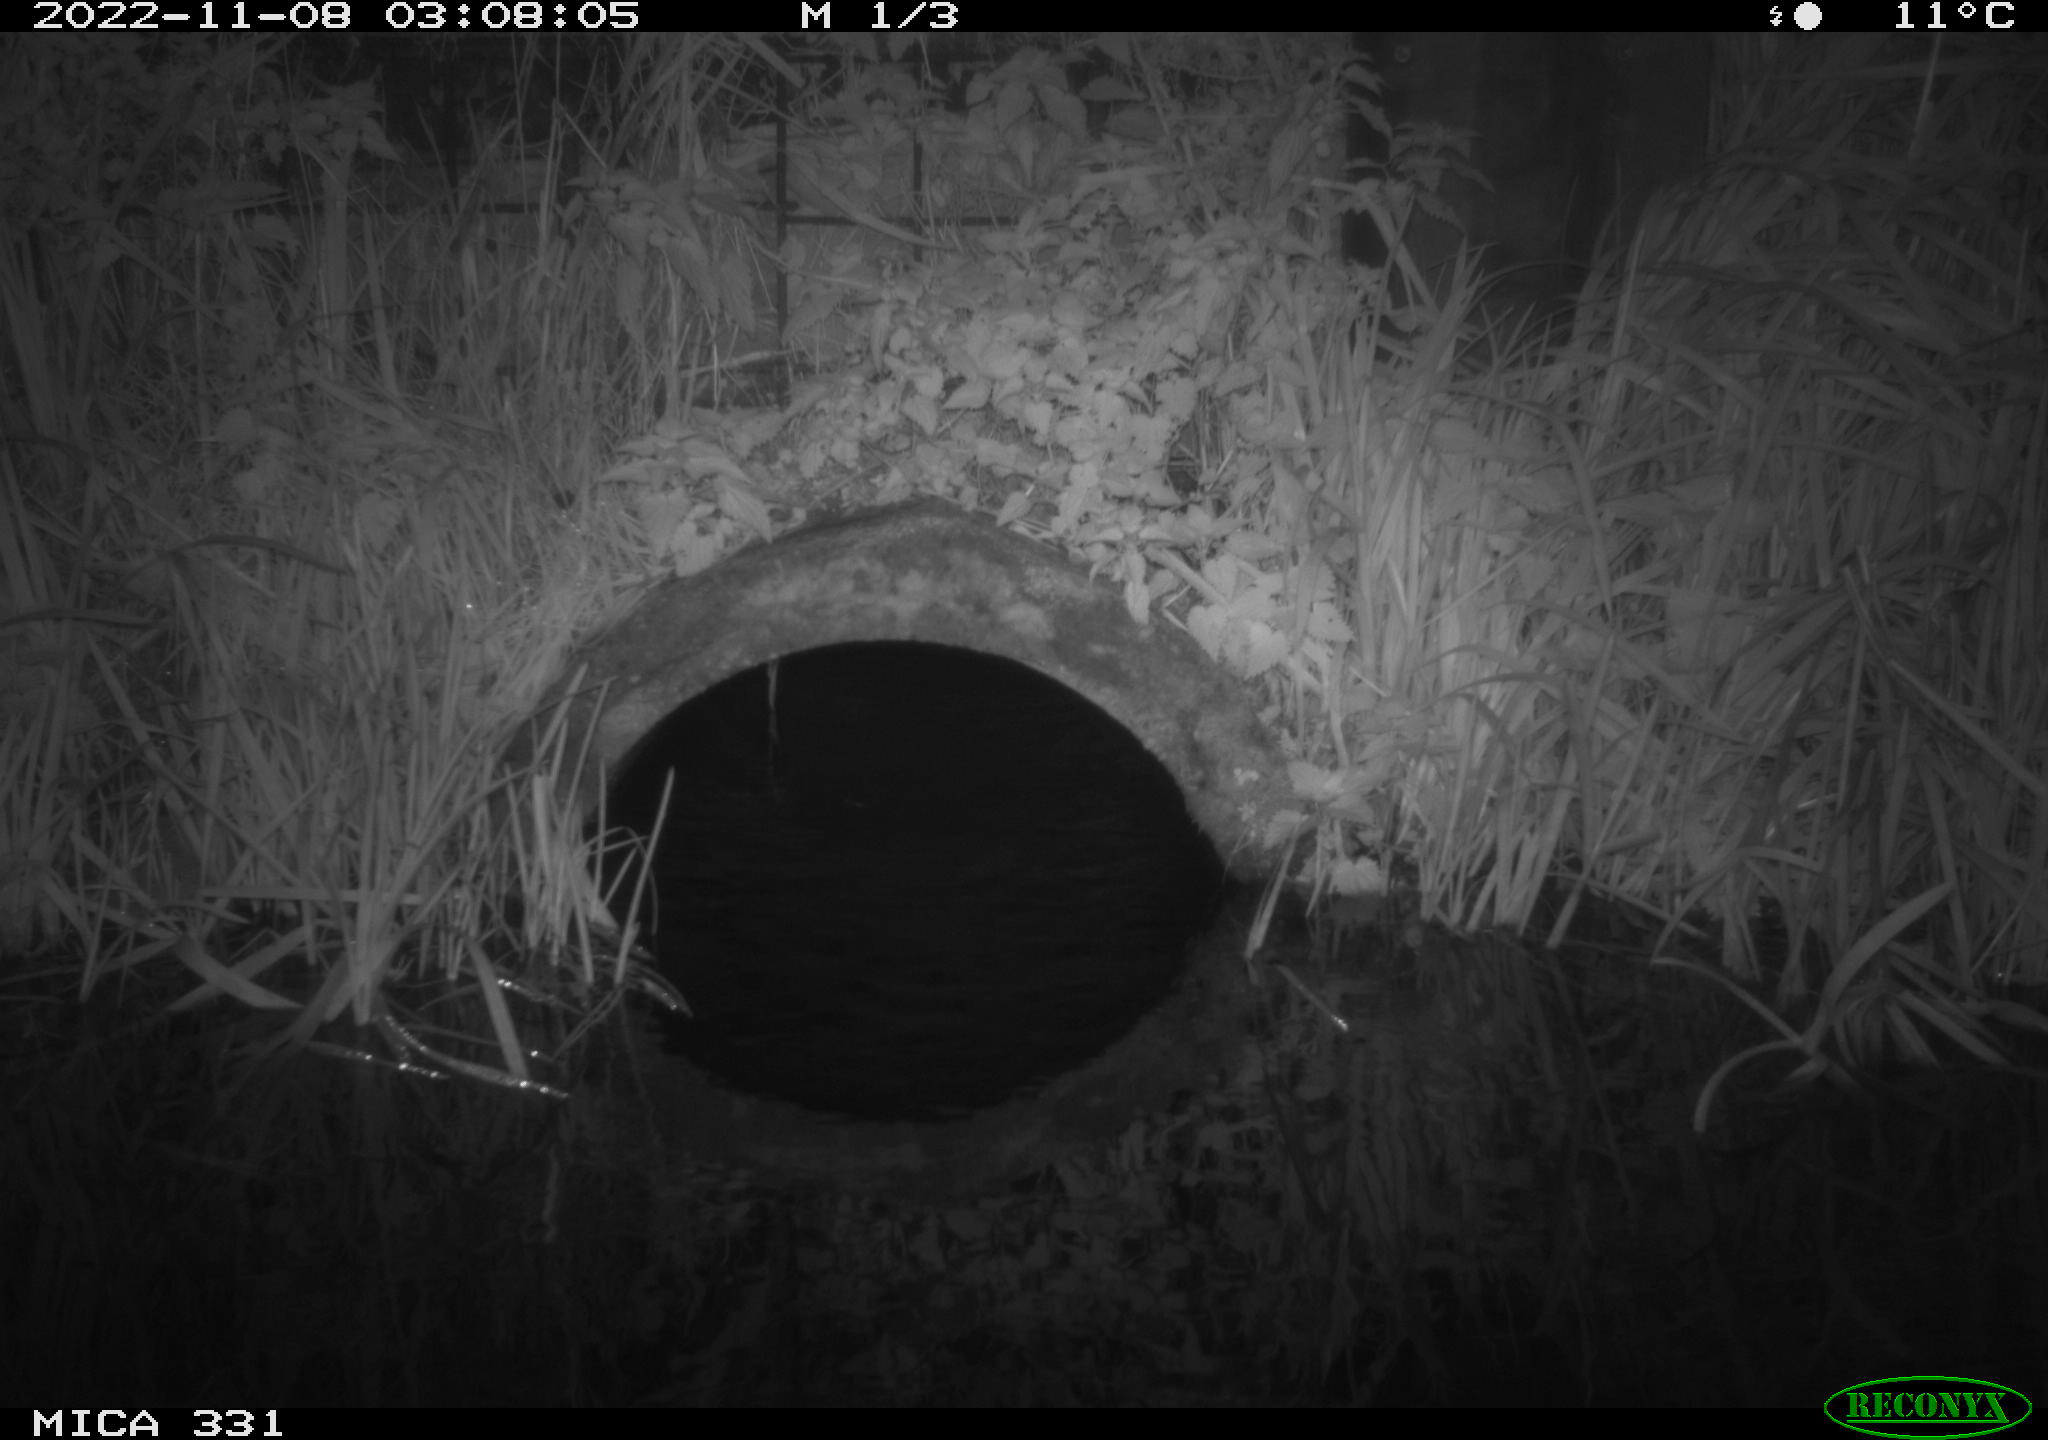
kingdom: Animalia
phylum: Chordata
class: Mammalia
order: Rodentia
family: Muridae
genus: Rattus
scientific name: Rattus norvegicus
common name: Brown rat
